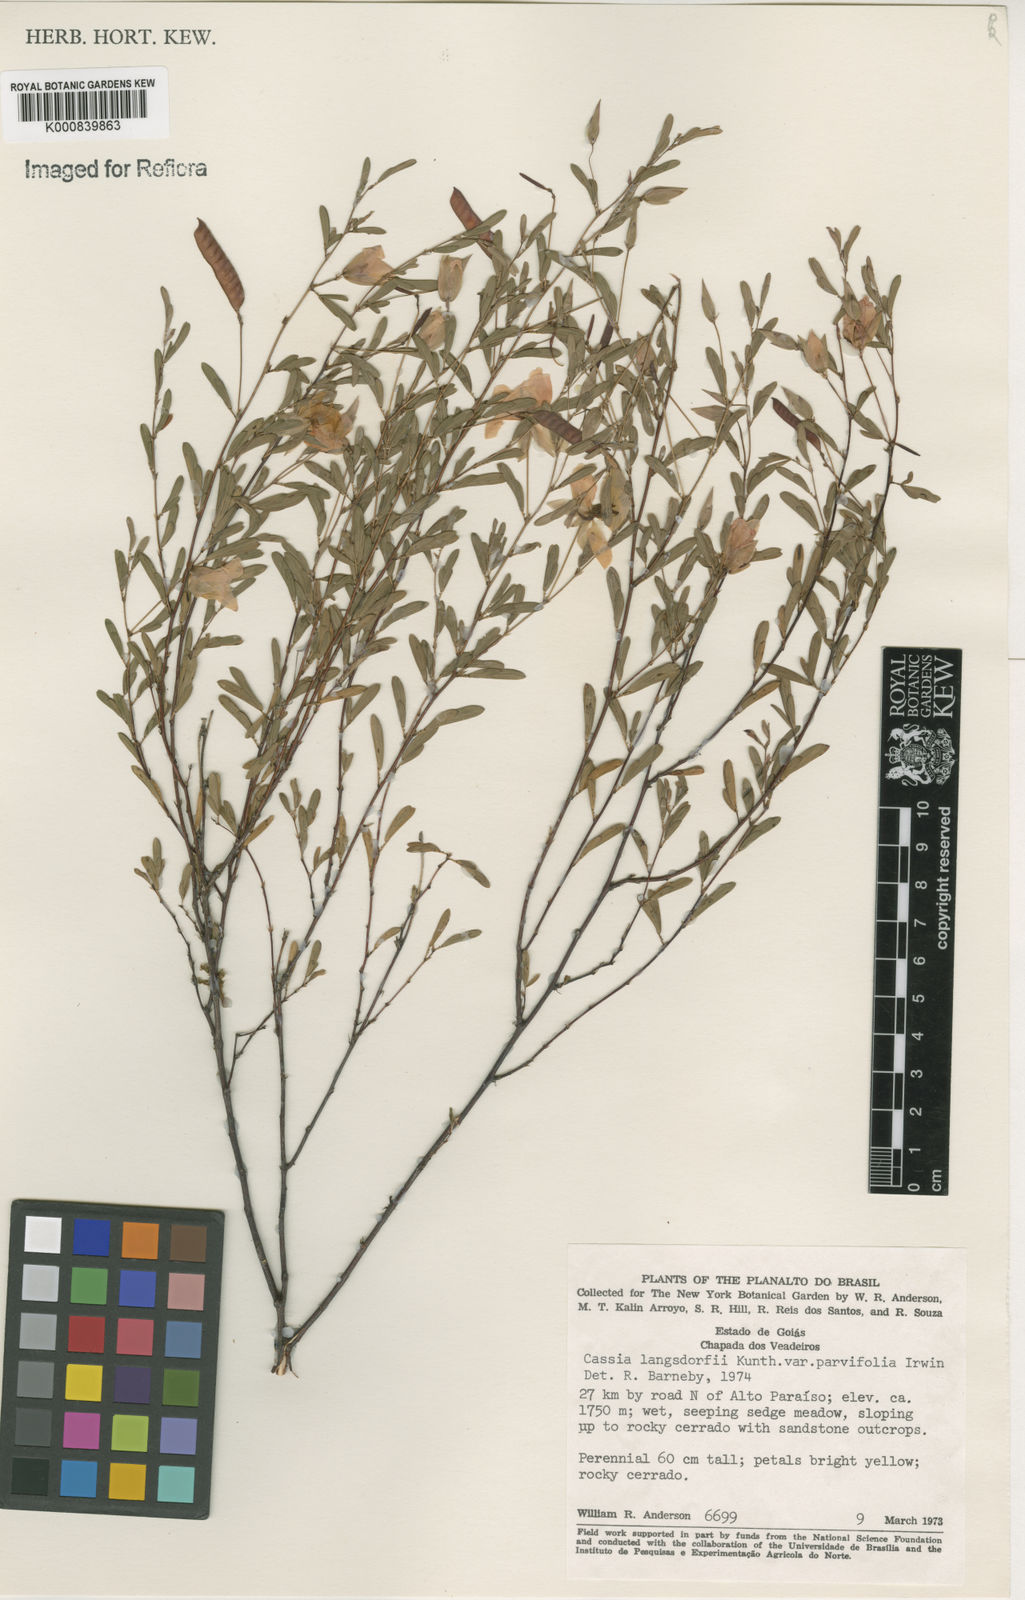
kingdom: Plantae
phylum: Tracheophyta
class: Magnoliopsida
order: Fabales
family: Fabaceae
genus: Chamaecrista
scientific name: Chamaecrista ramosa
